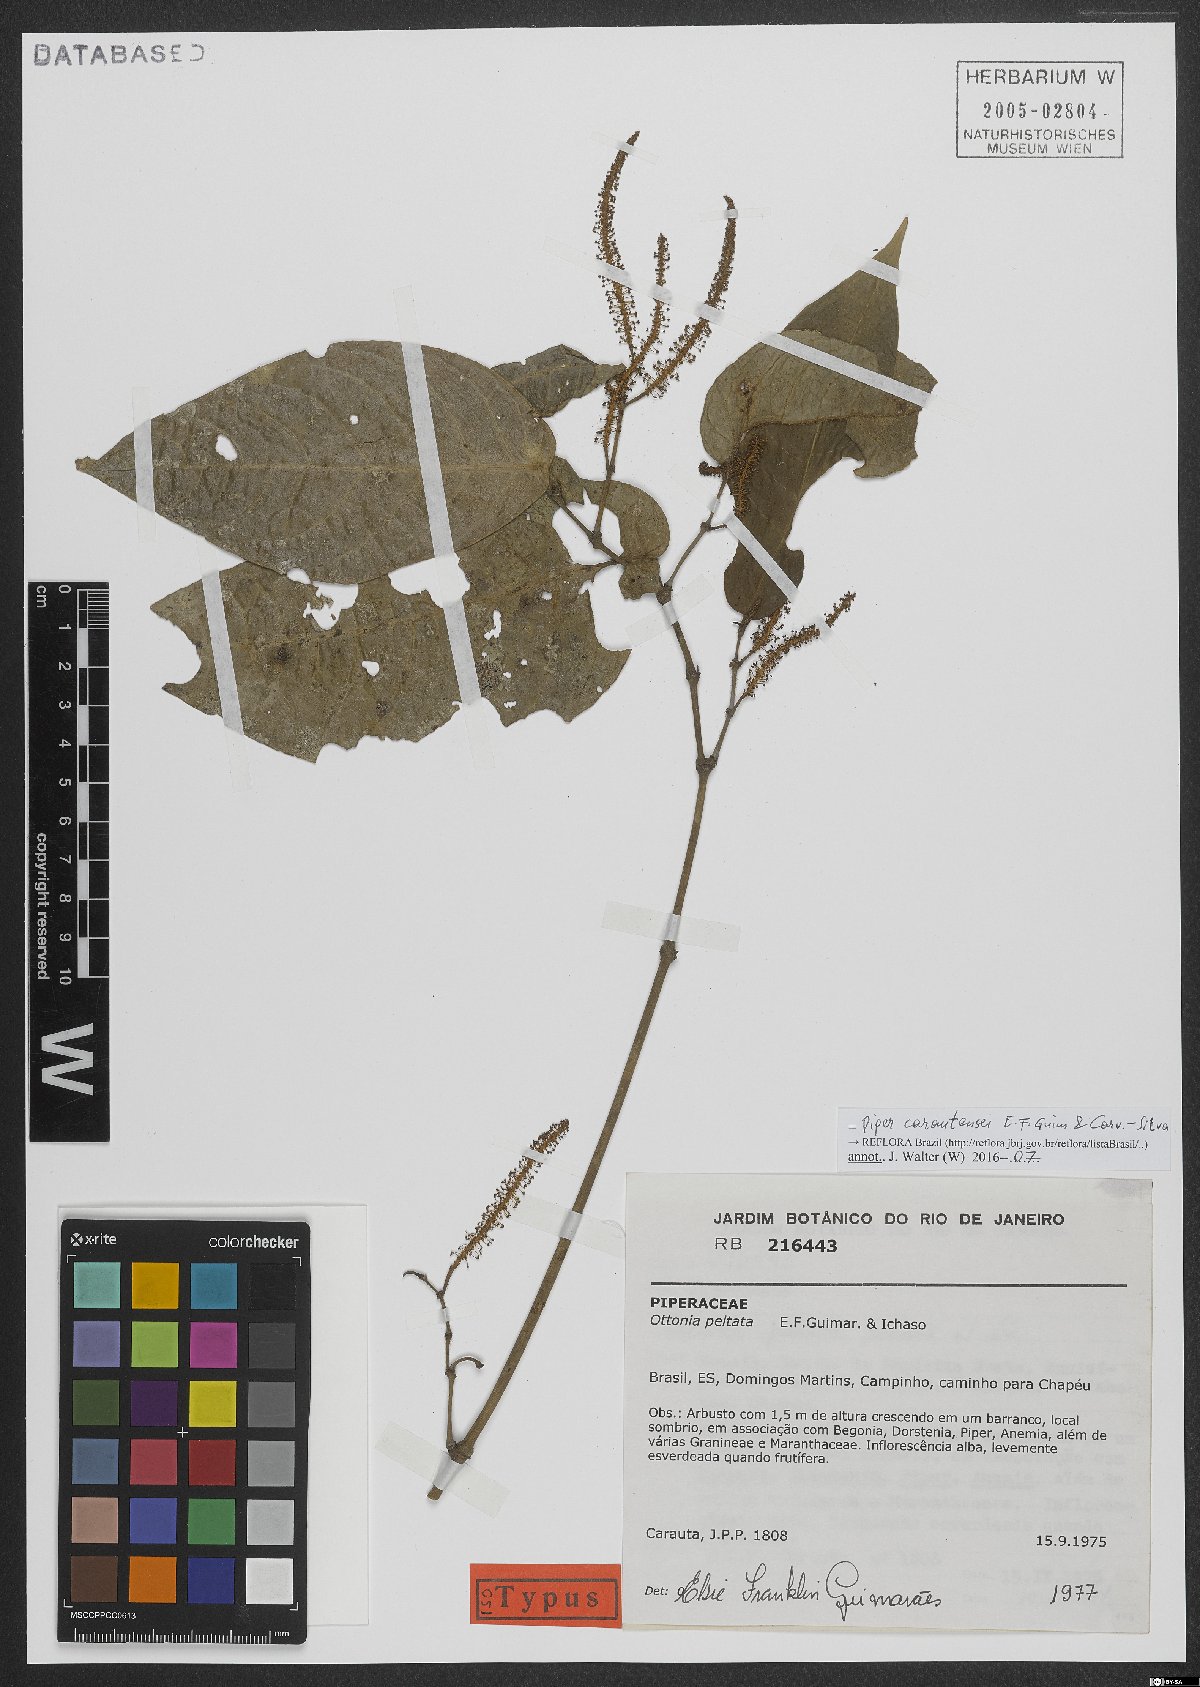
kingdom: Plantae
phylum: Tracheophyta
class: Magnoliopsida
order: Piperales
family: Piperaceae
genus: Piper
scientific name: Piper carautensei
